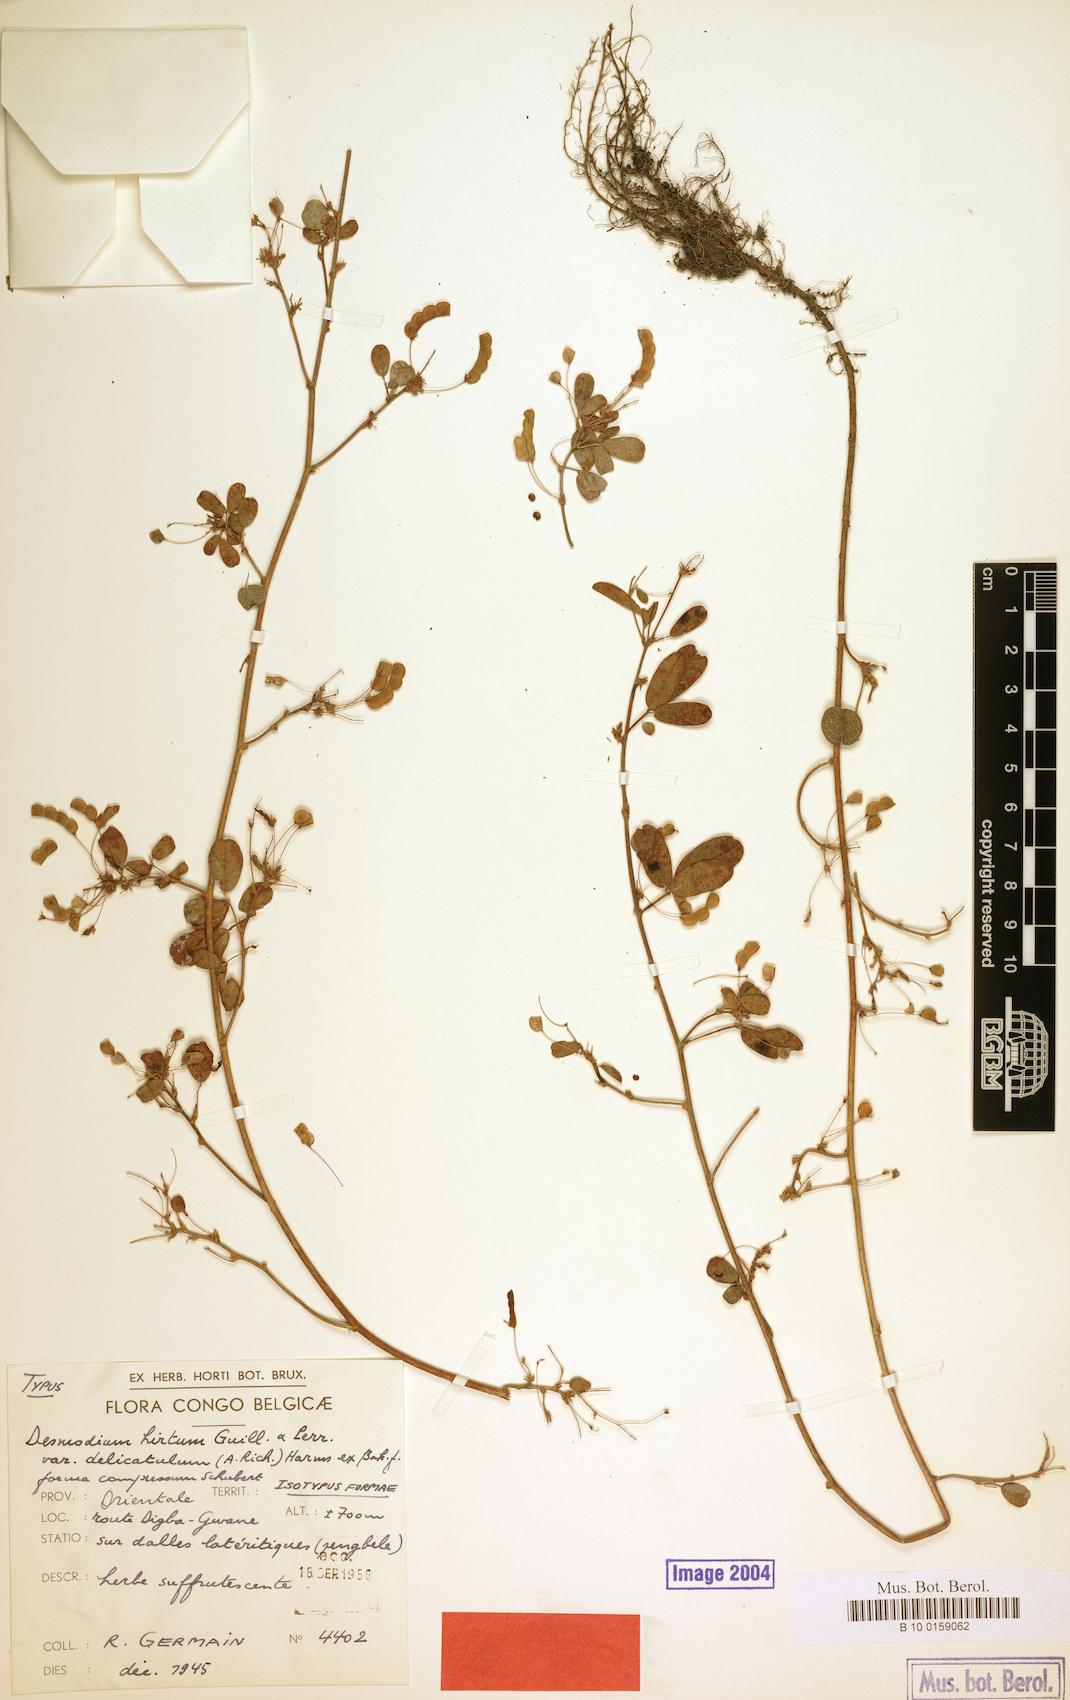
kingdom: Plantae
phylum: Tracheophyta
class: Magnoliopsida
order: Fabales
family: Fabaceae
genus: Grona
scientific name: Grona hirta
